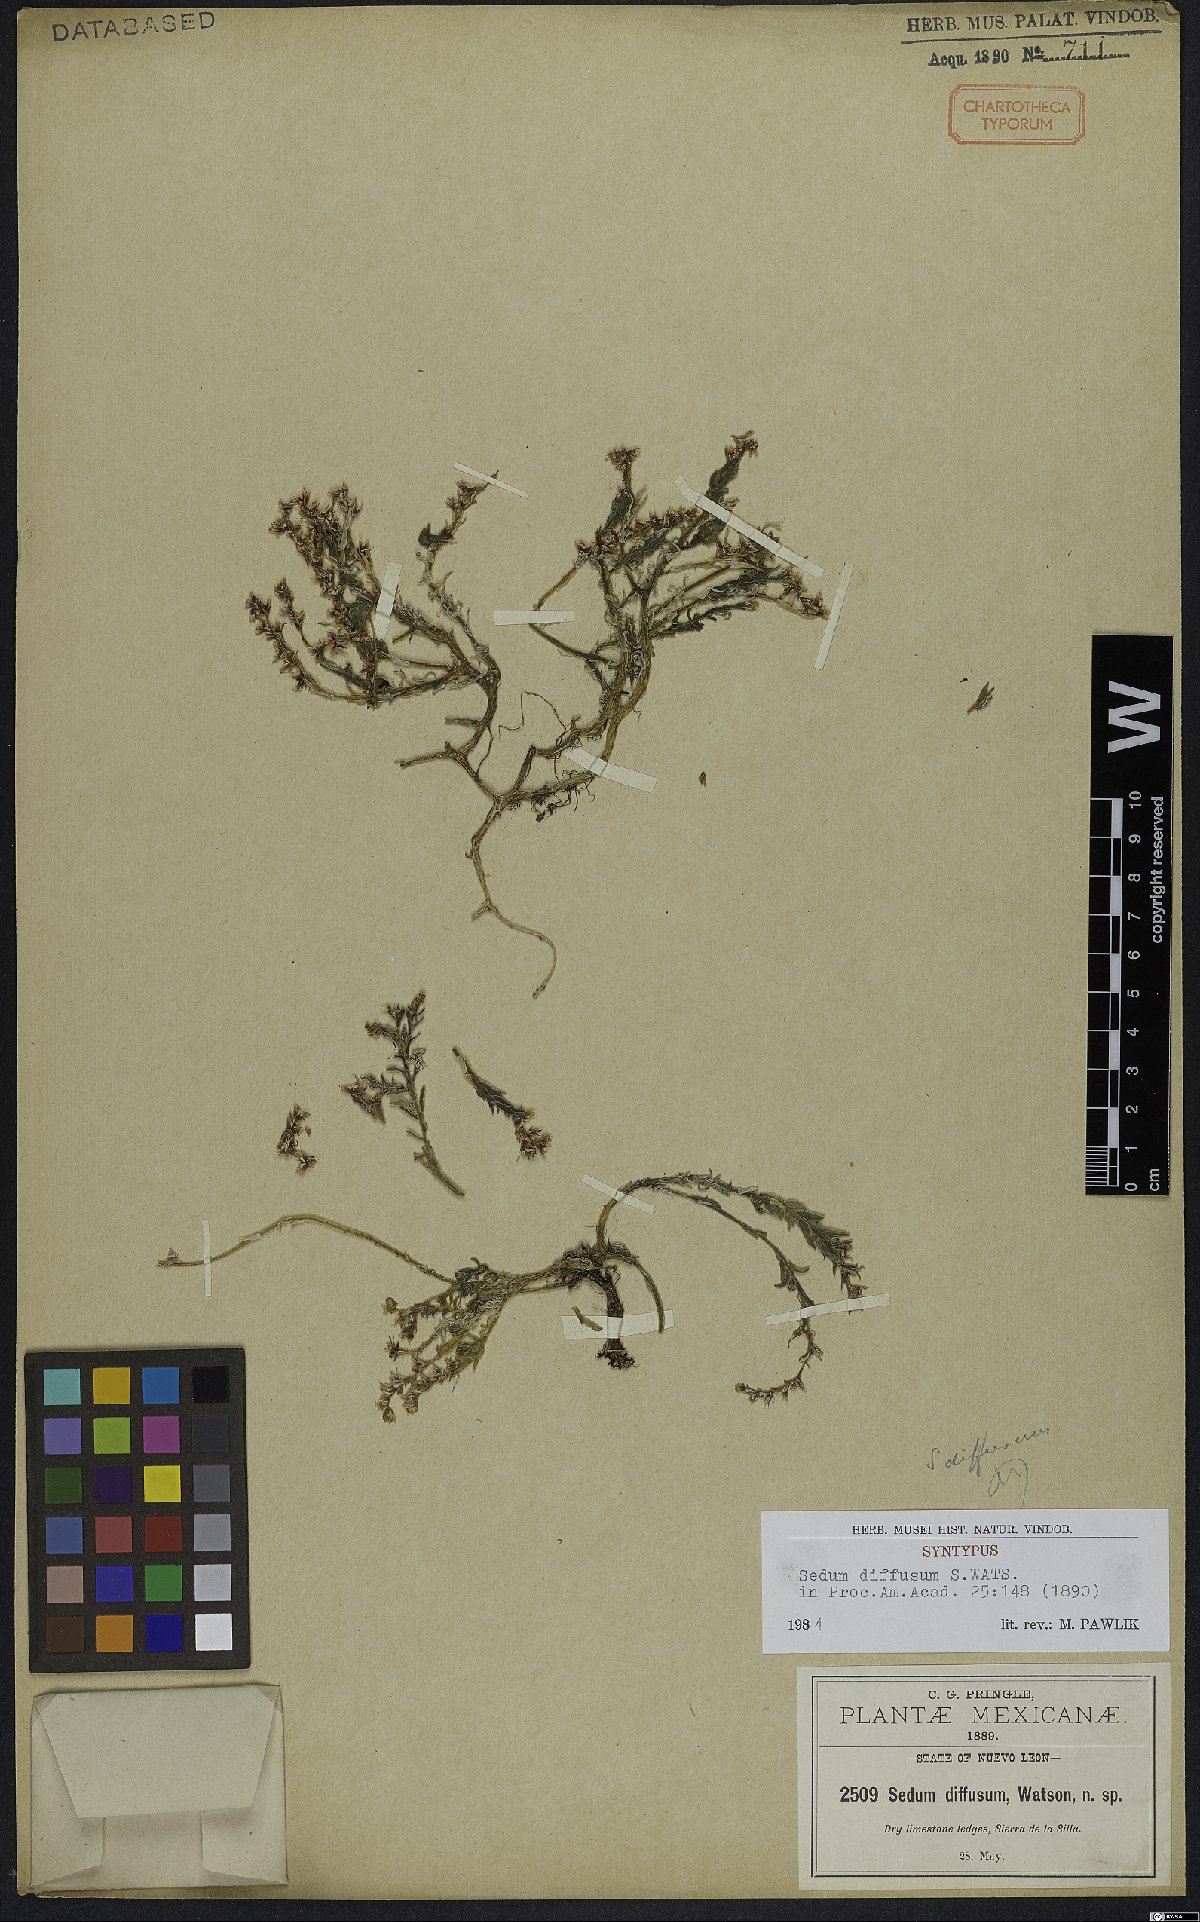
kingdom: Plantae
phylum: Tracheophyta
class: Magnoliopsida
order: Saxifragales
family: Crassulaceae
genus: Sedum
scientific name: Sedum diffusum
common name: Stonecrop
